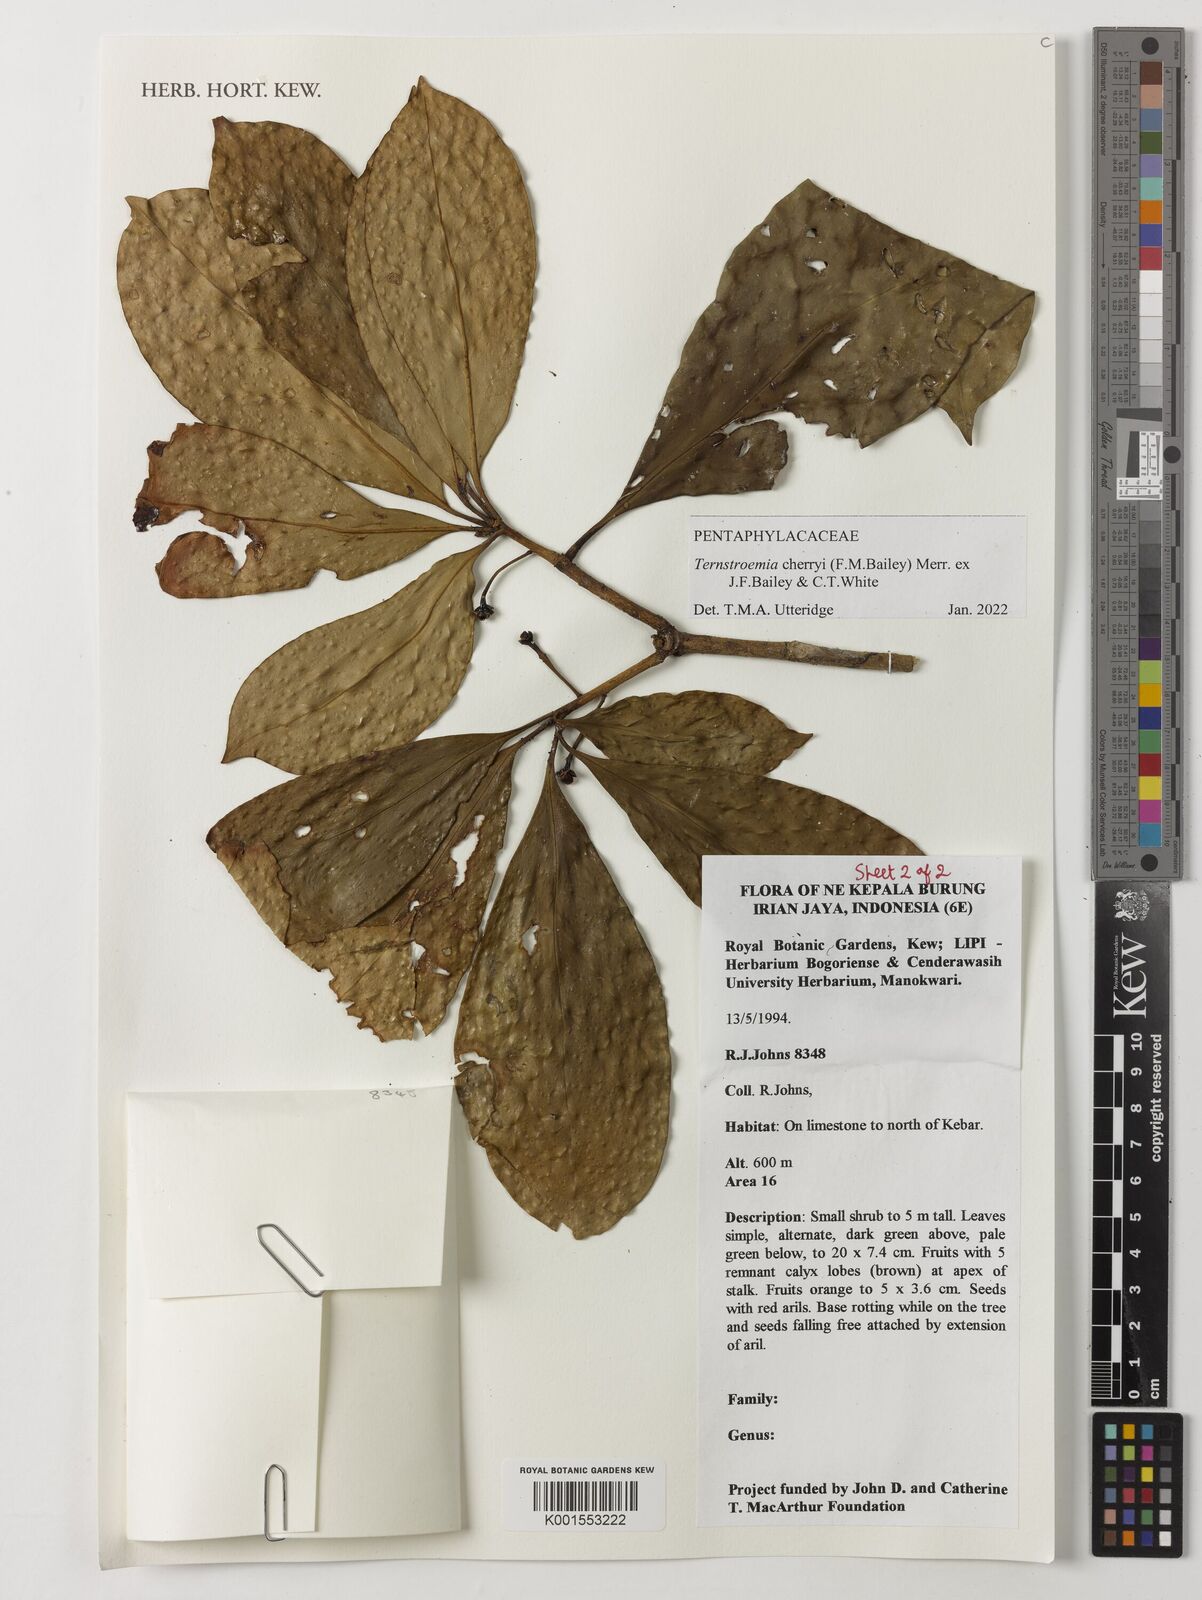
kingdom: Plantae
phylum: Tracheophyta
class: Magnoliopsida
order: Ericales
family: Pentaphylacaceae
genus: Ternstroemia
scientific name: Ternstroemia cherryi
